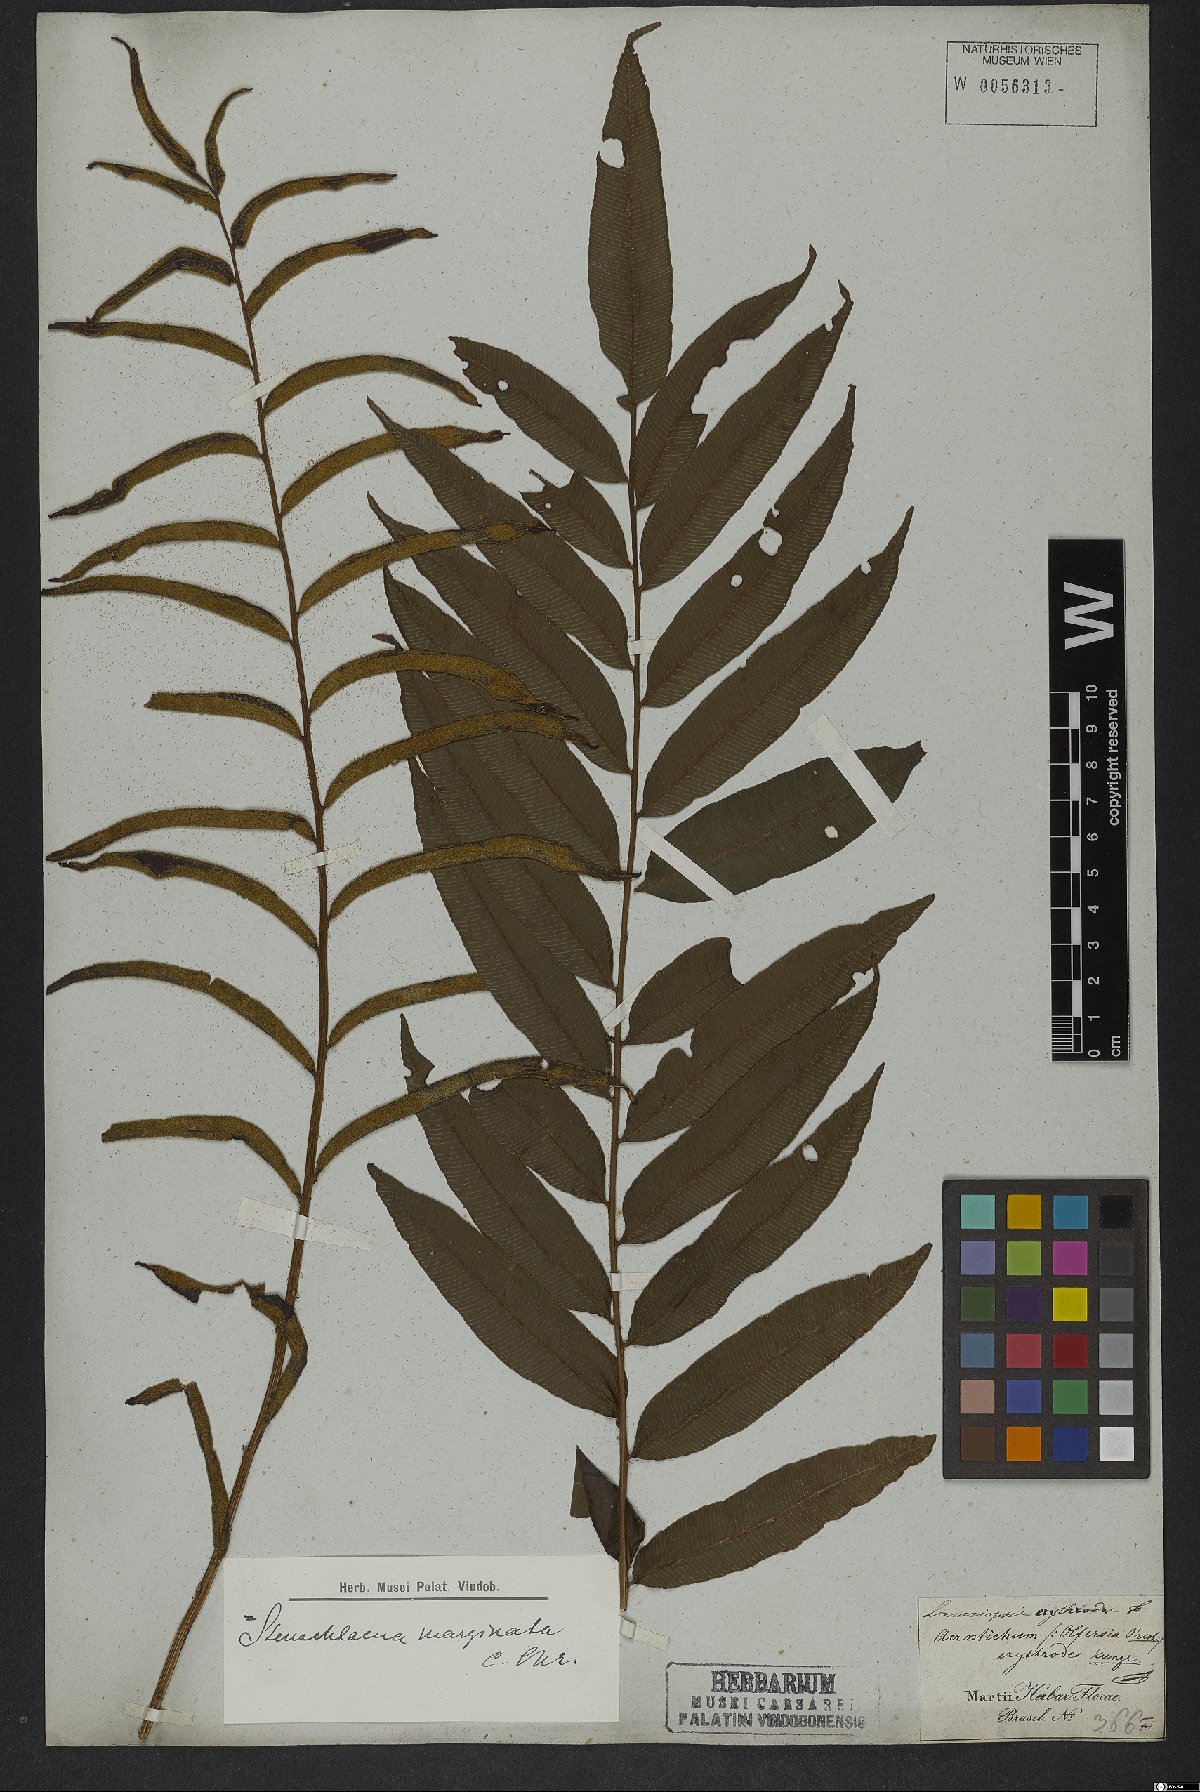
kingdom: Plantae
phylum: Tracheophyta
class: Polypodiopsida
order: Polypodiales
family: Lomariopsidaceae
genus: Lomariopsis
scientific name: Lomariopsis marginata
